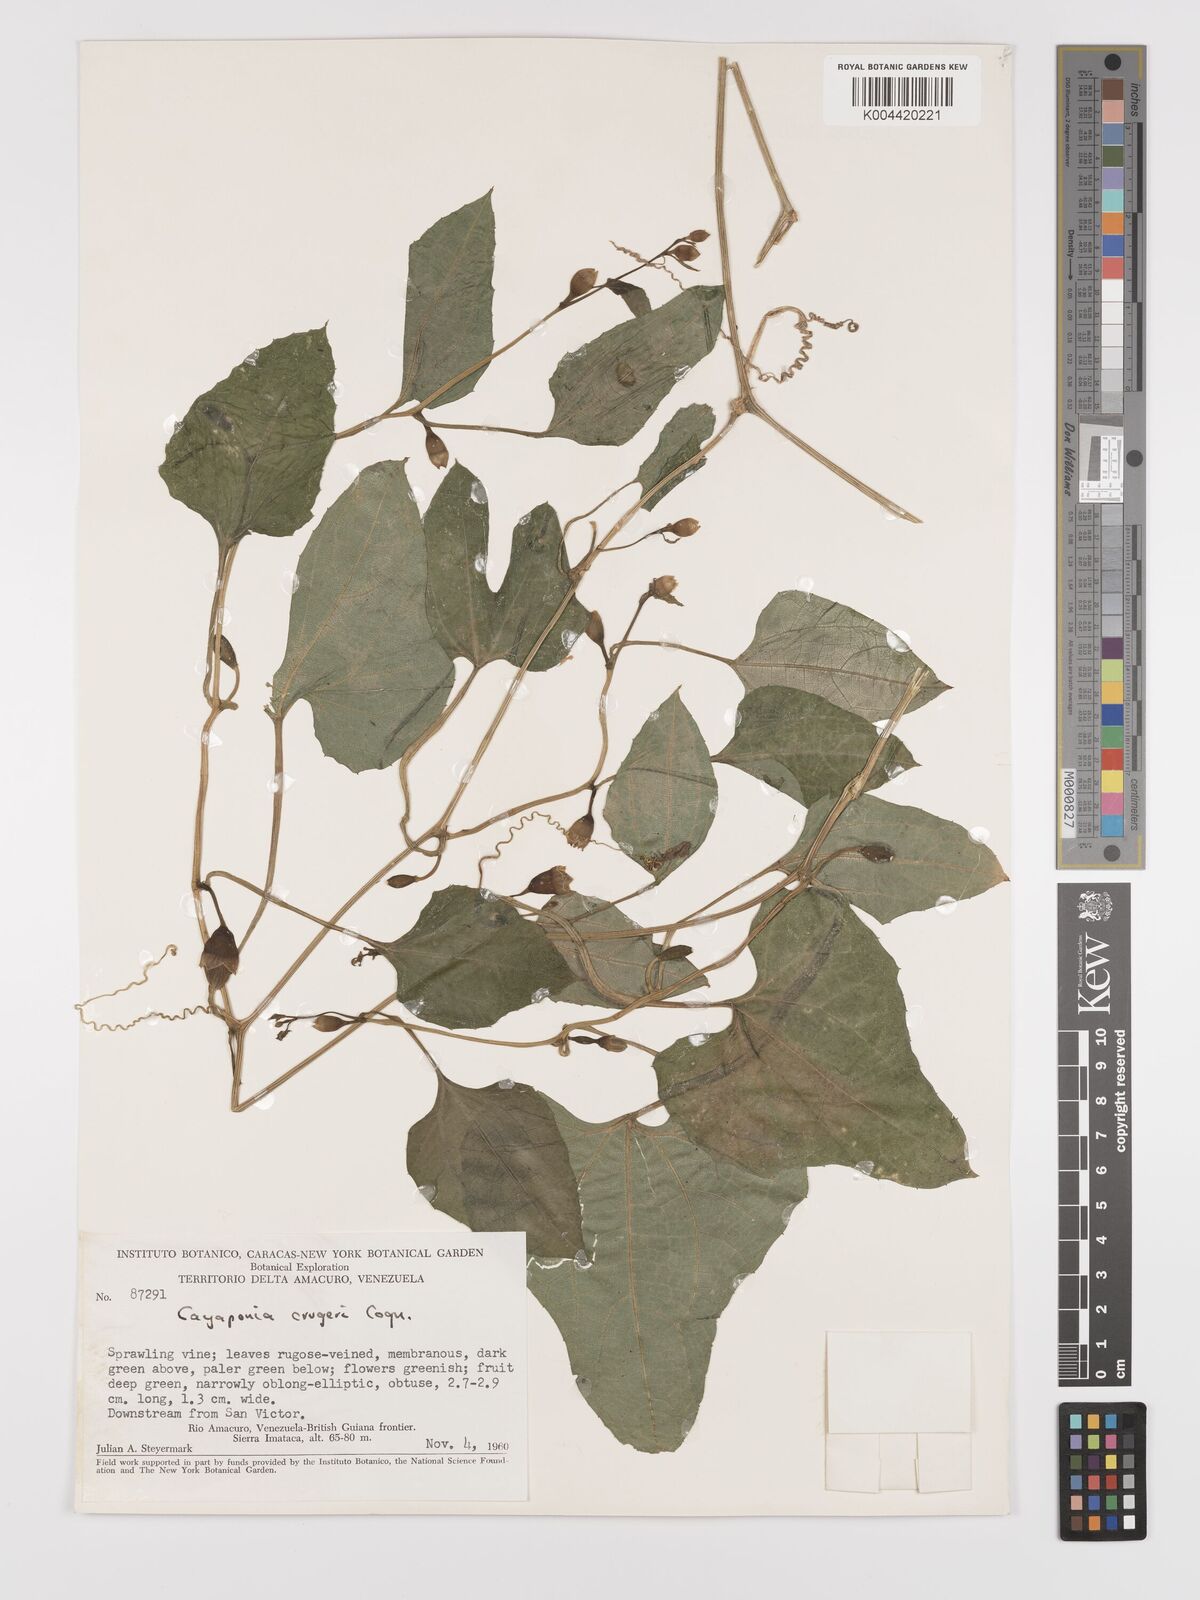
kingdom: Plantae
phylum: Tracheophyta
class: Magnoliopsida
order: Cucurbitales
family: Cucurbitaceae
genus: Cayaponia
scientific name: Cayaponia cruegeri
